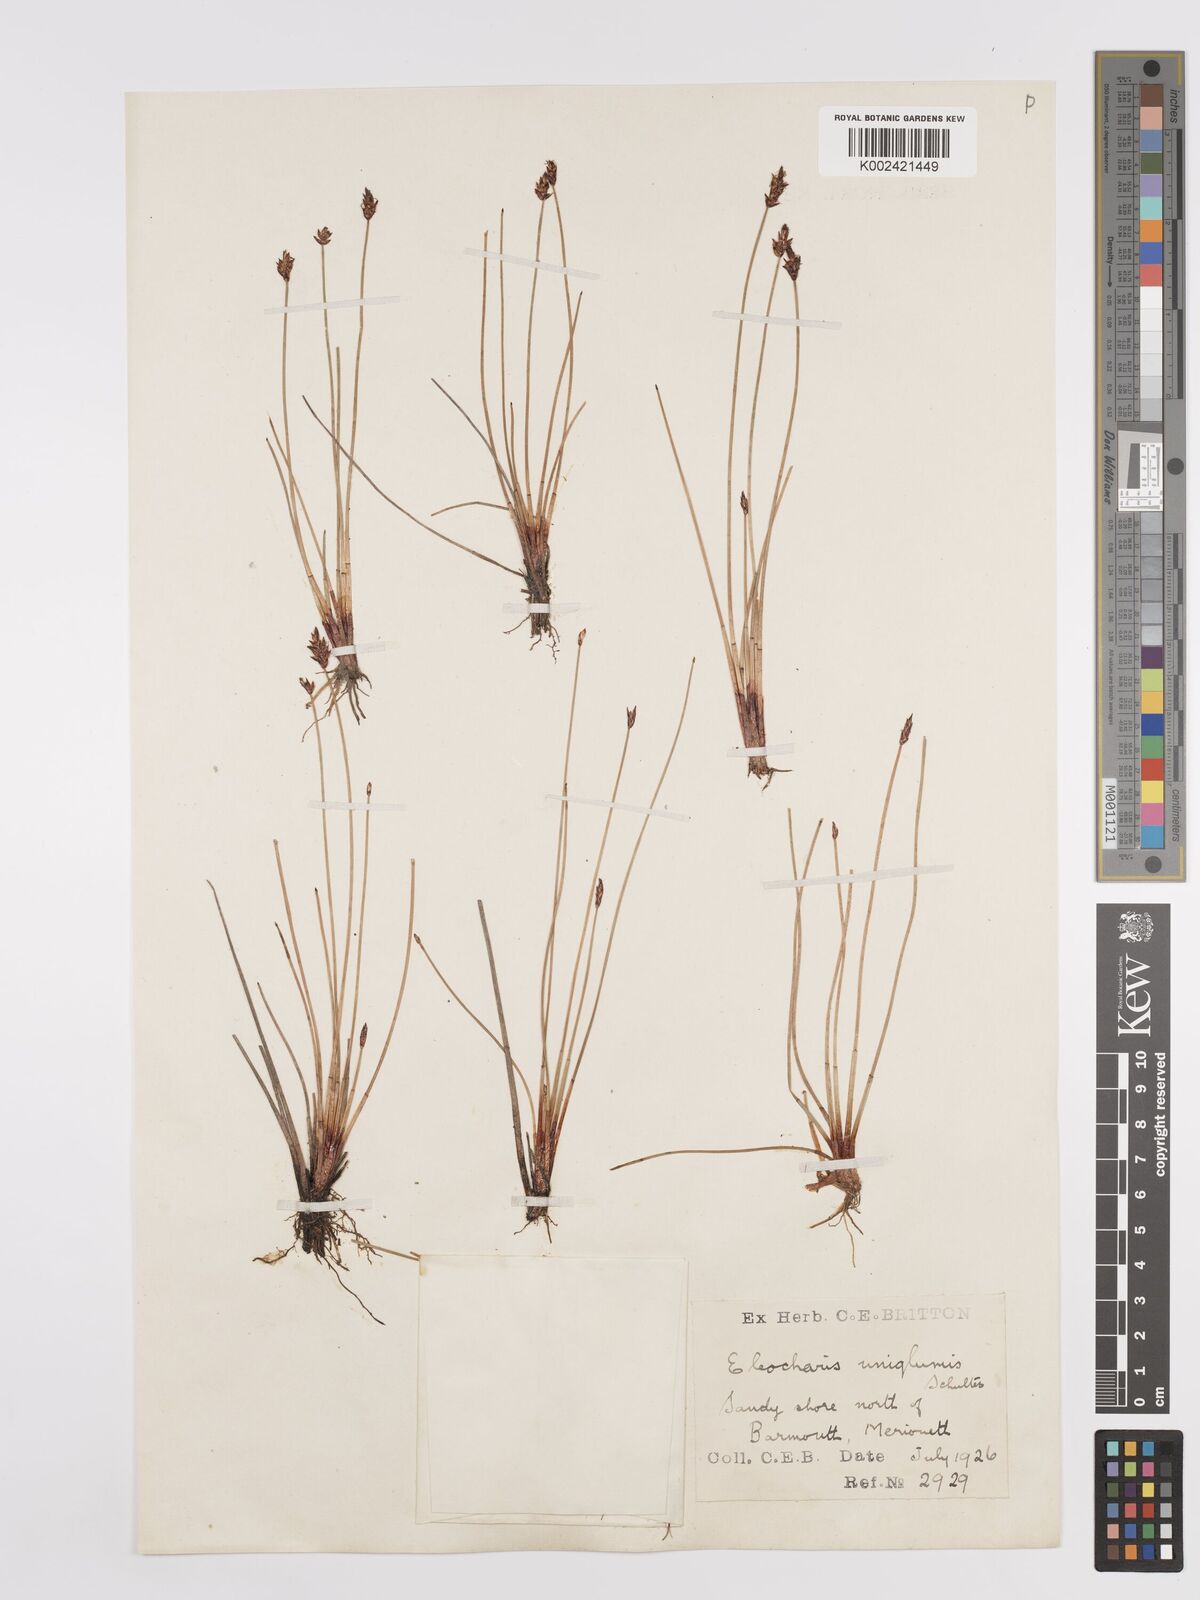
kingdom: Plantae
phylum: Tracheophyta
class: Liliopsida
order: Poales
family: Cyperaceae
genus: Eleocharis
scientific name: Eleocharis uniglumis
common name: Slender spike-rush
